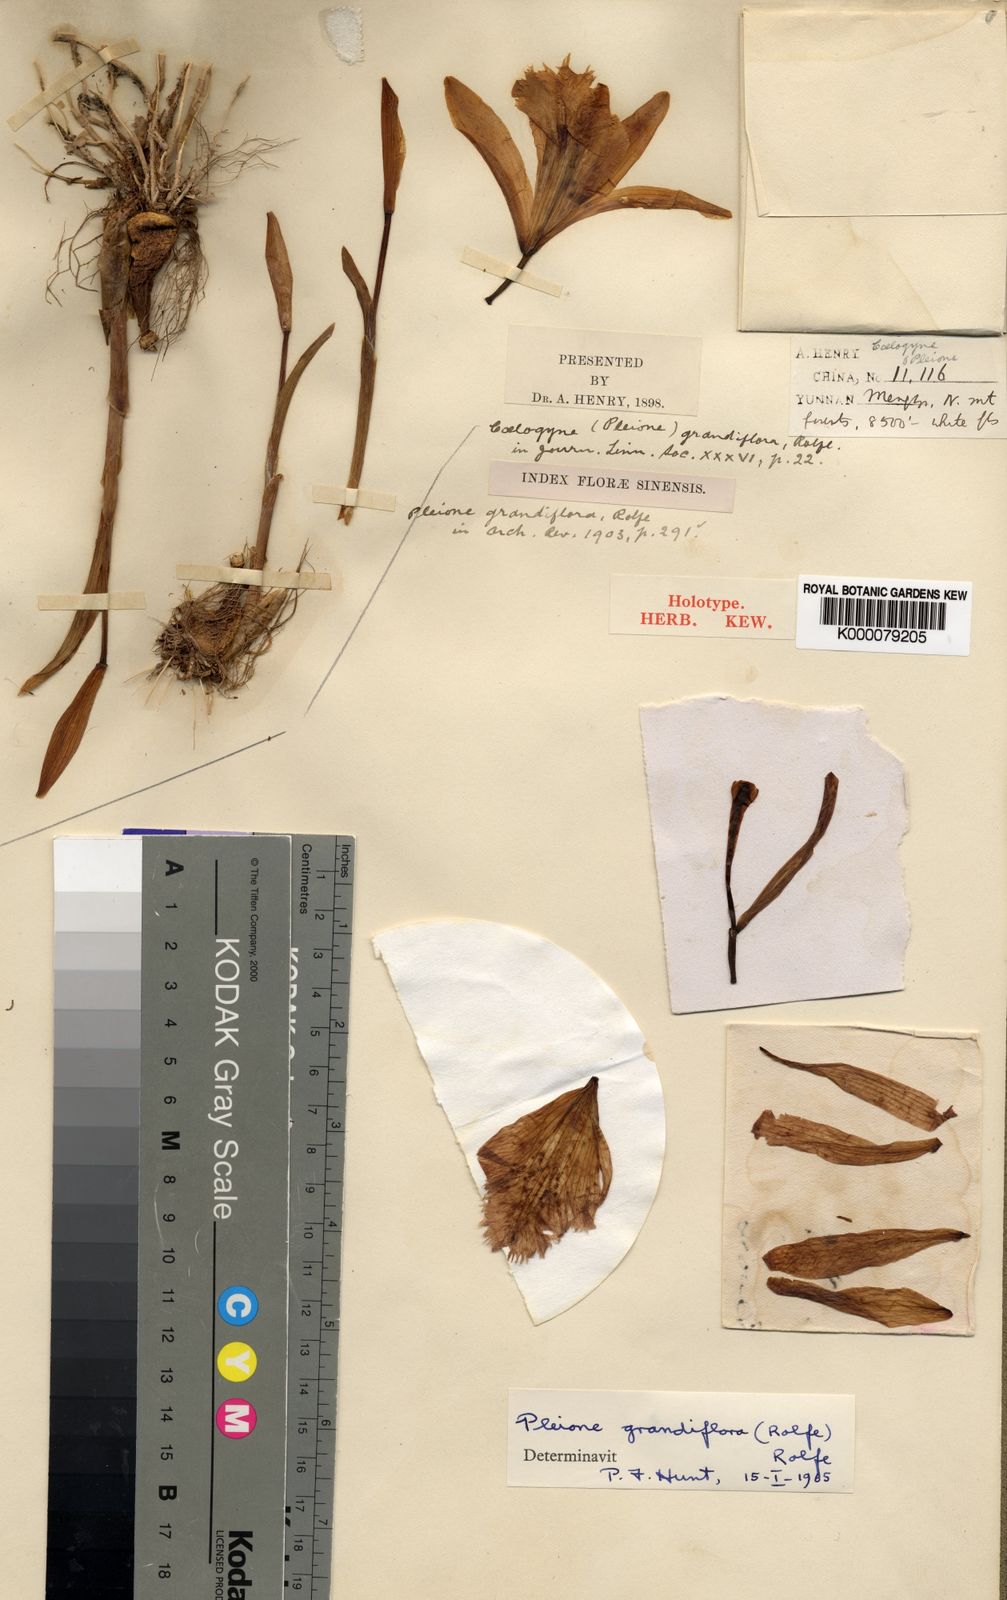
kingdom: Plantae
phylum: Tracheophyta
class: Liliopsida
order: Asparagales
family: Orchidaceae
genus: Pleione
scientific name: Pleione grandiflora
